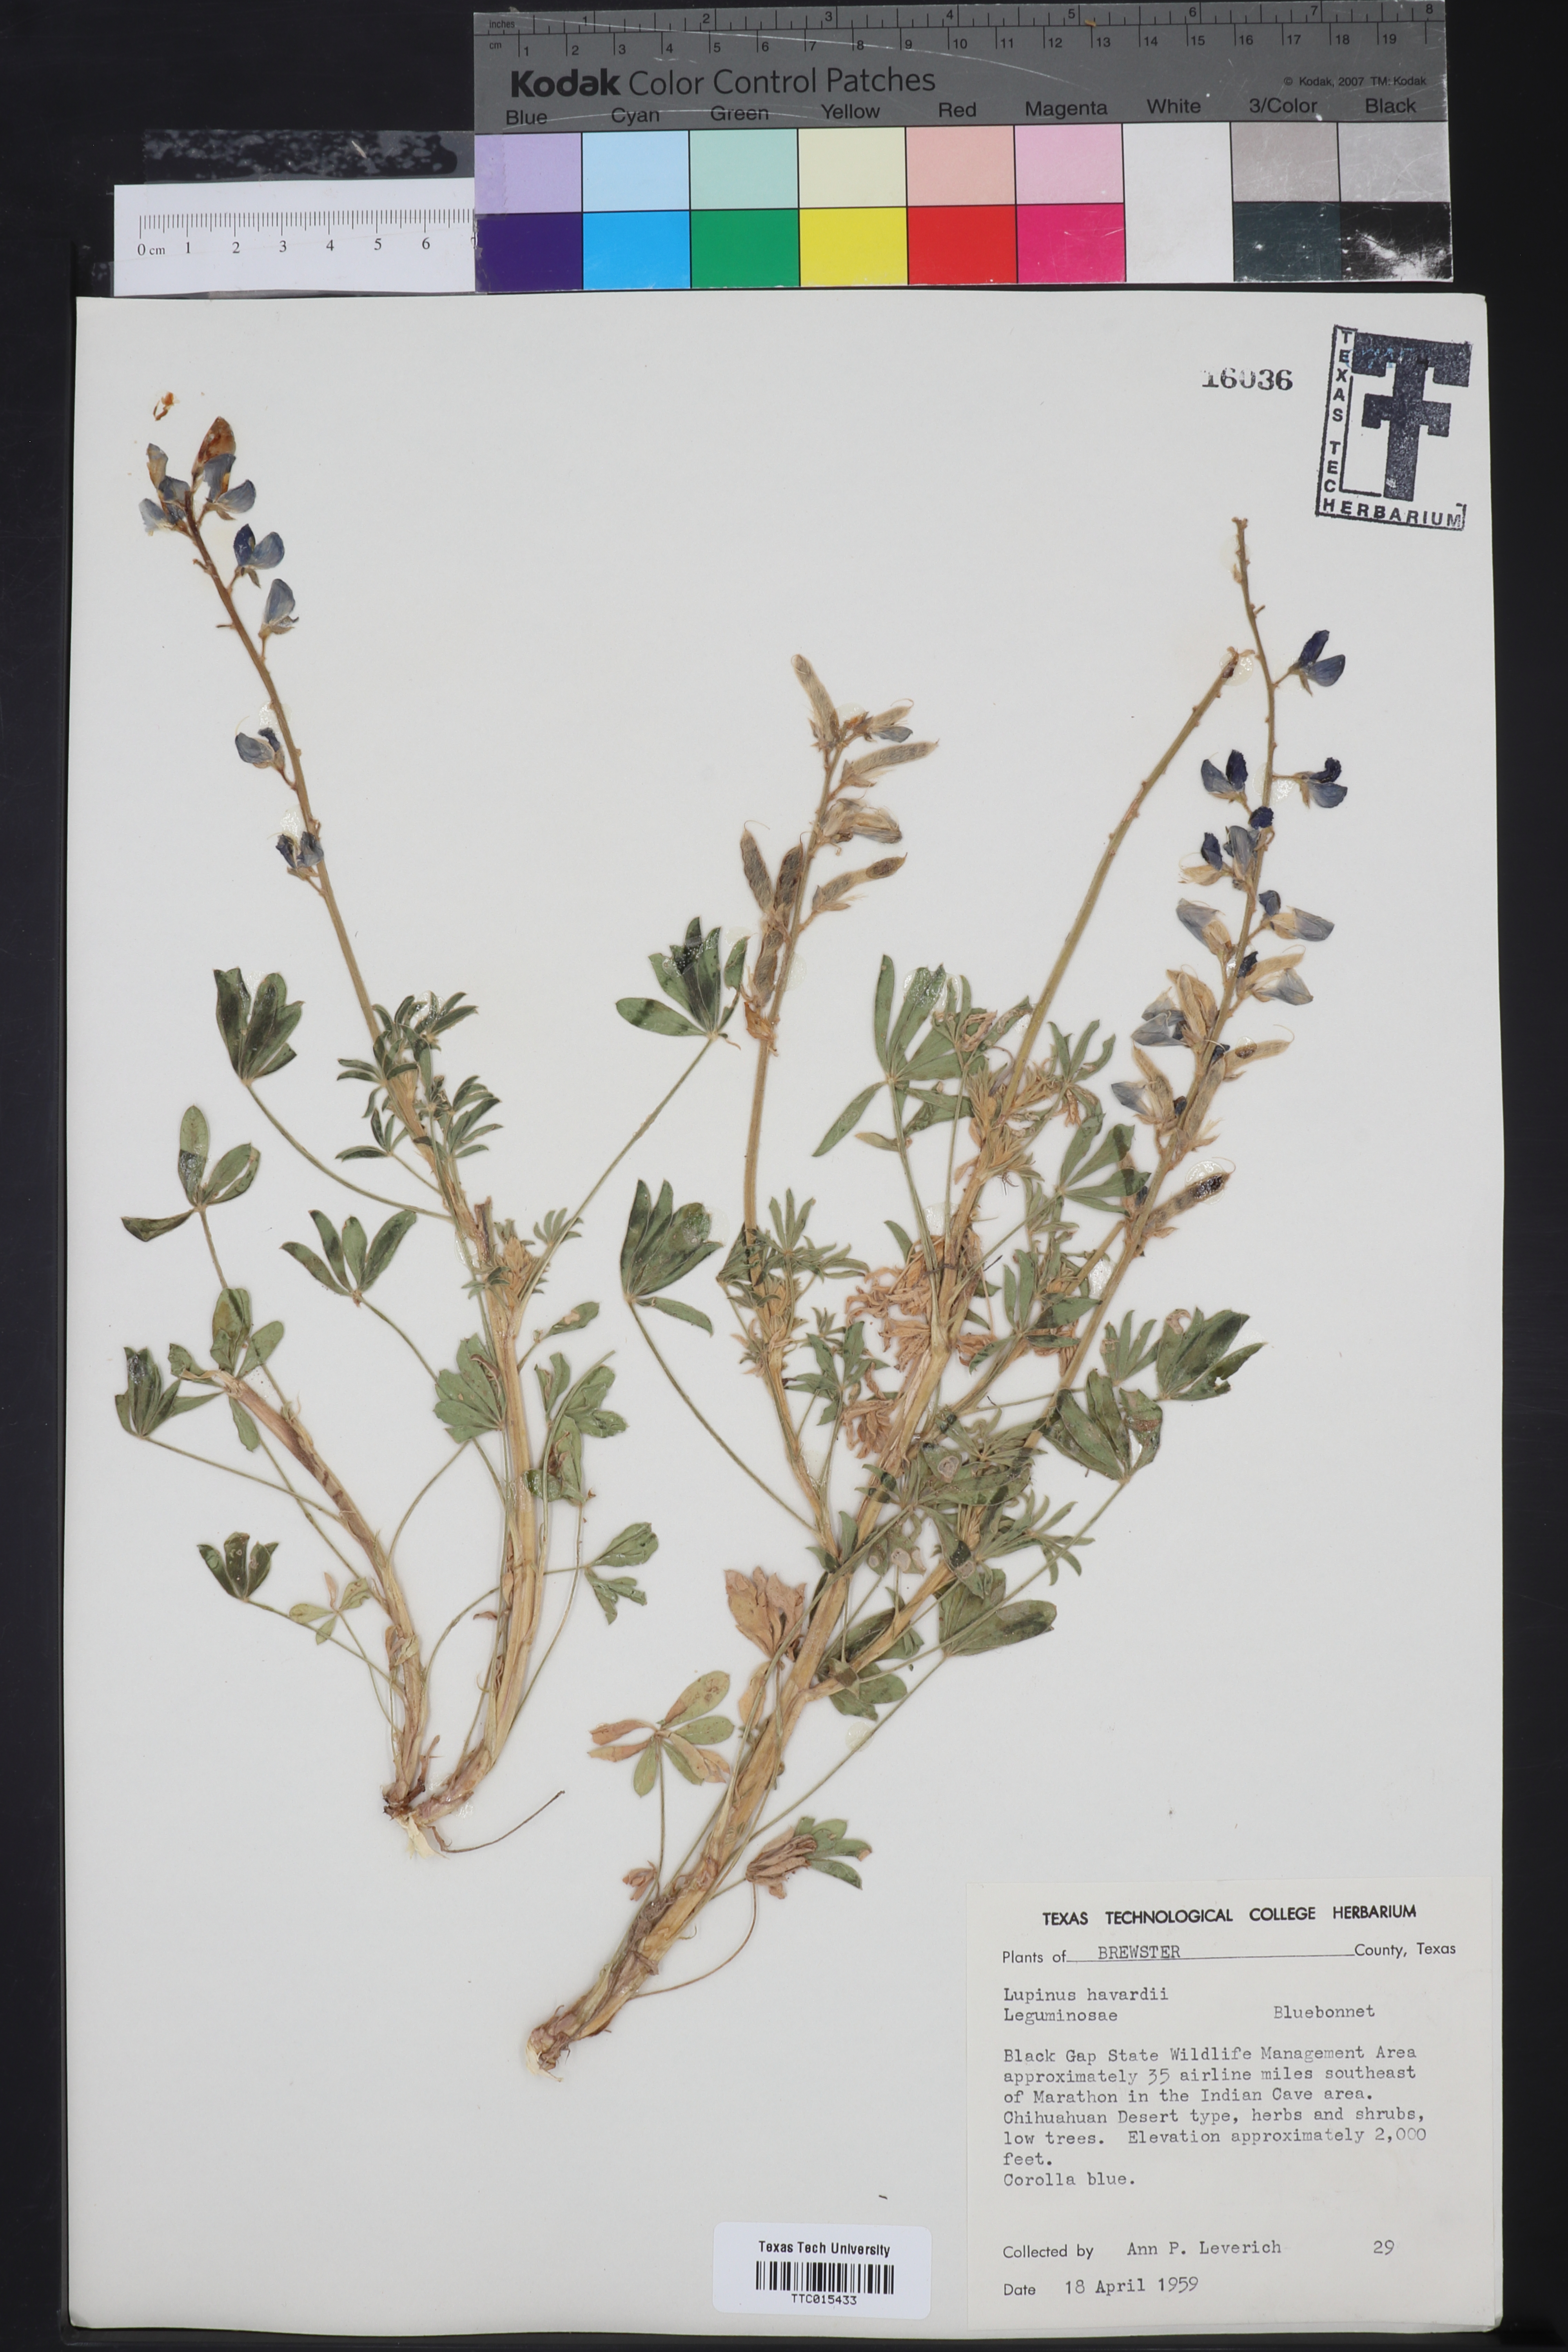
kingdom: Plantae
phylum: Tracheophyta
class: Magnoliopsida
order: Fabales
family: Fabaceae
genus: Lupinus
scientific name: Lupinus havardii
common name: Chisos bluebonnet
